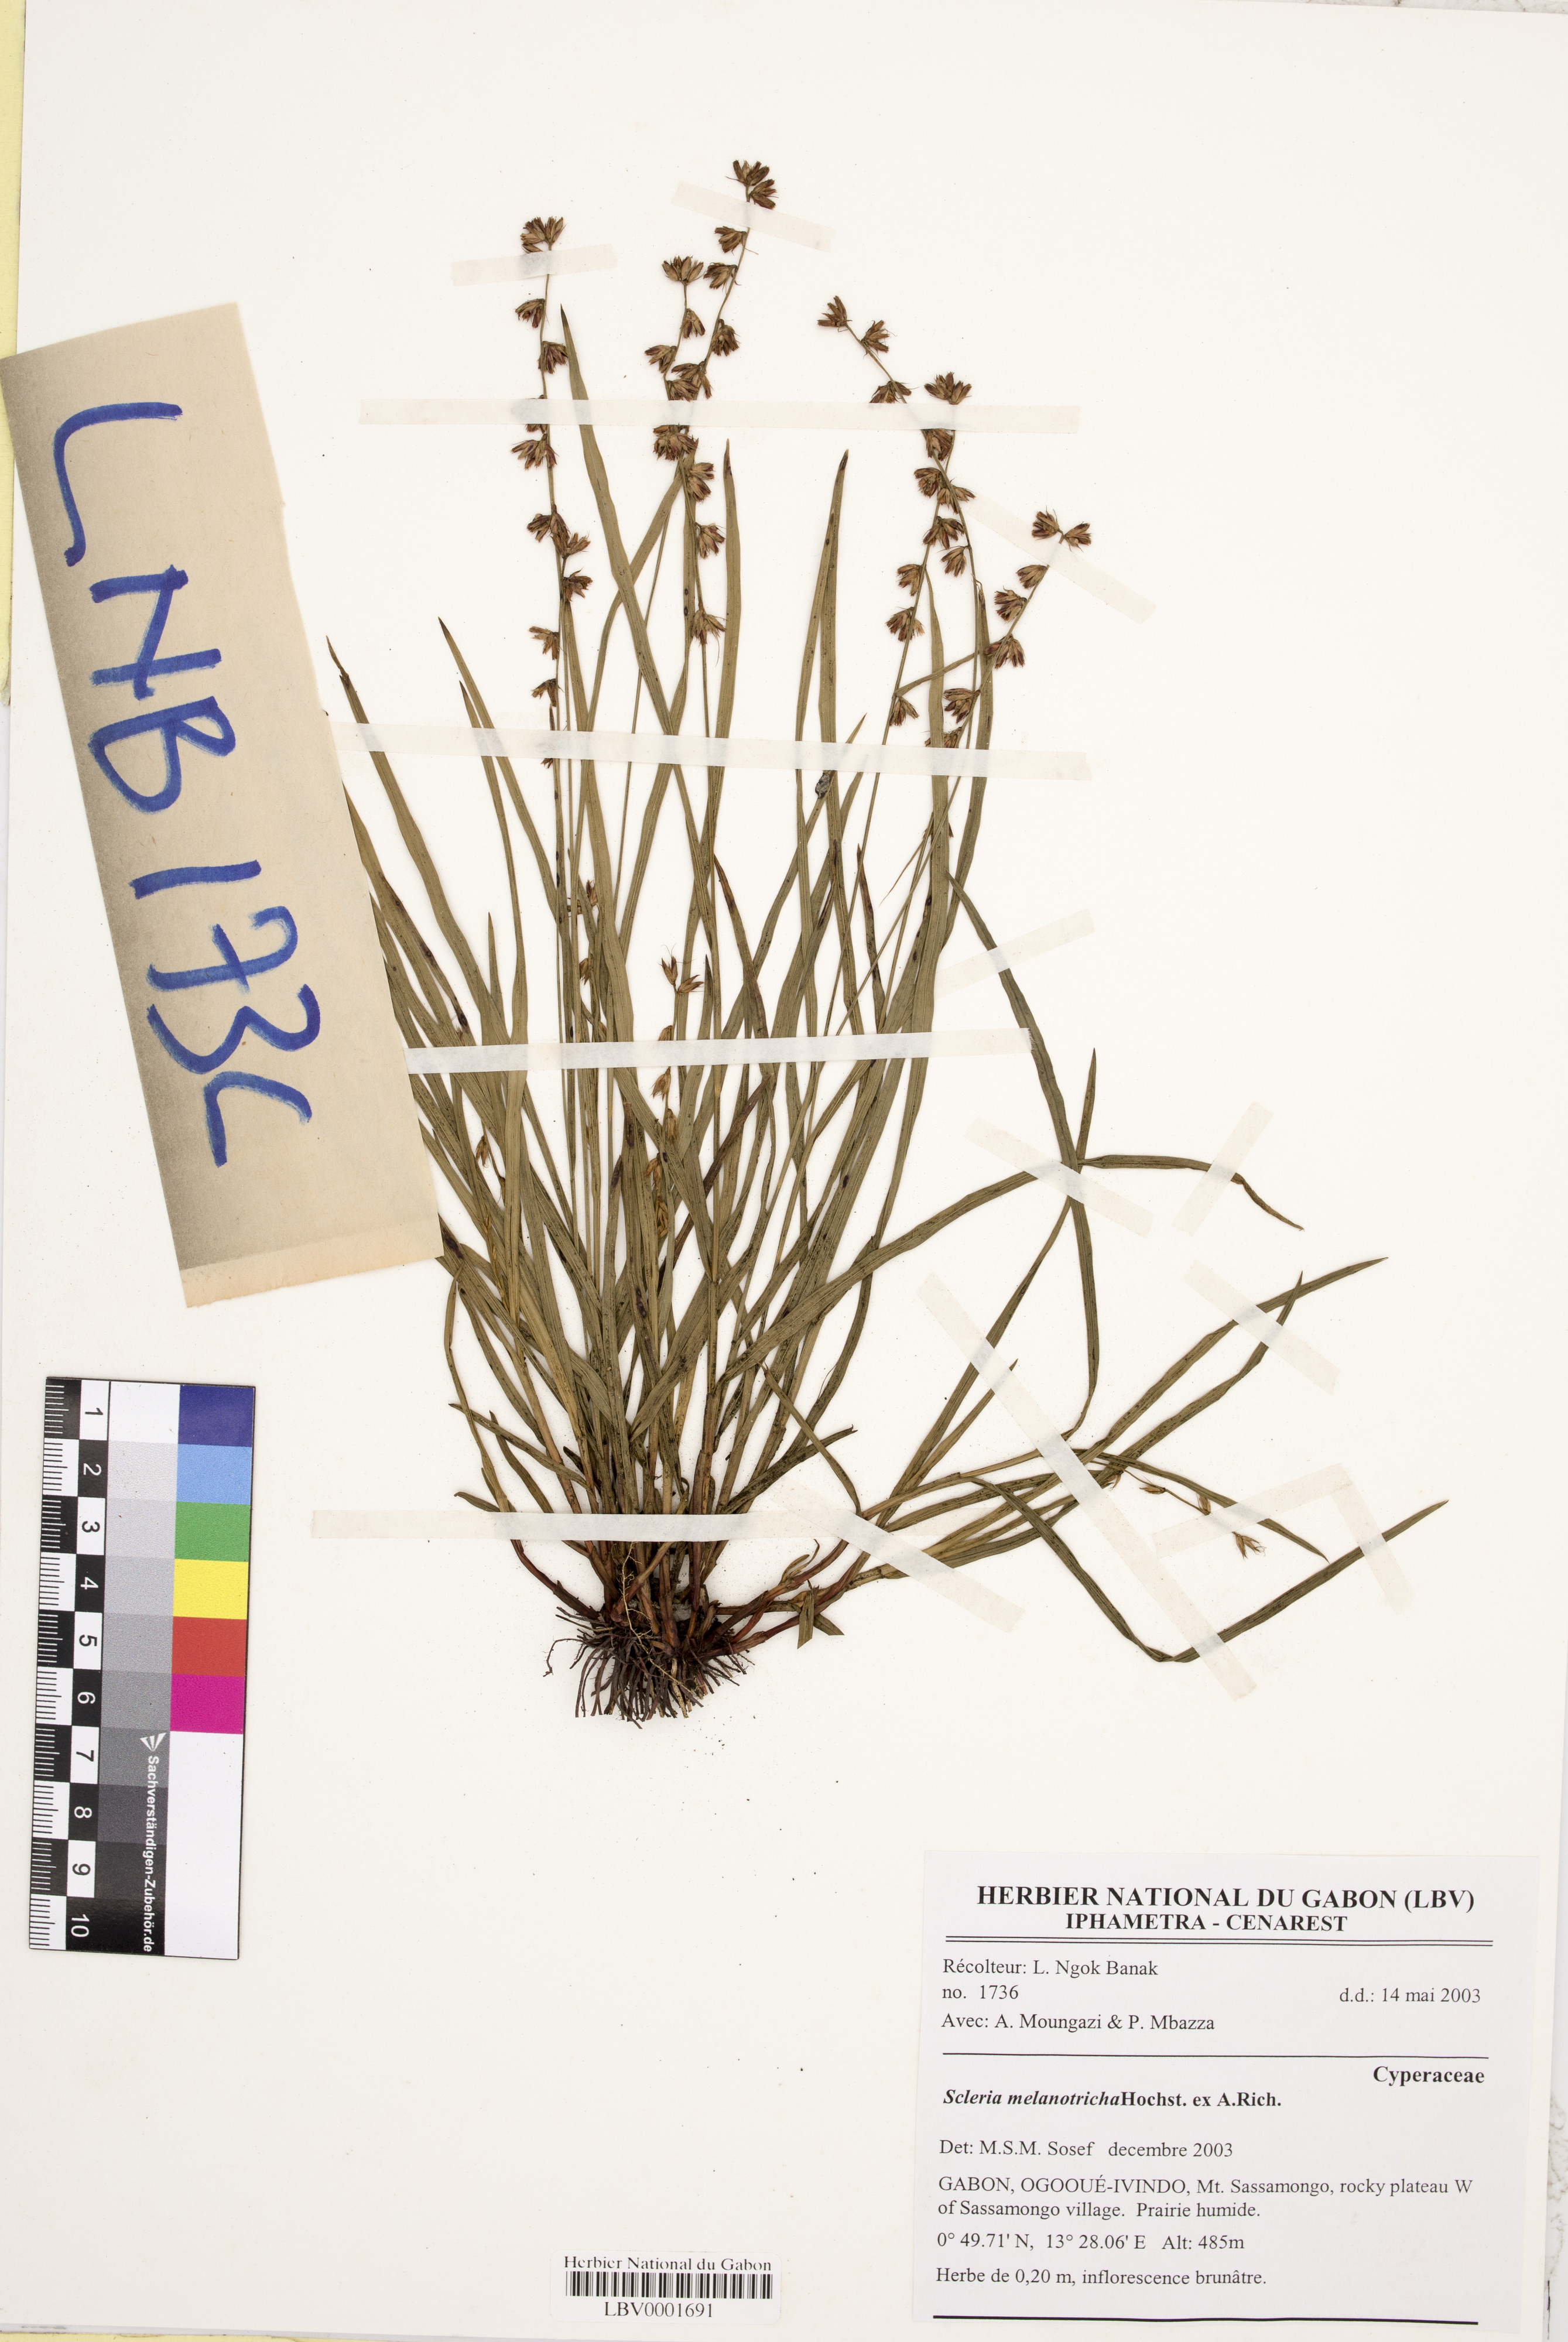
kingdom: Plantae
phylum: Tracheophyta
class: Liliopsida
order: Poales
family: Cyperaceae
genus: Scleria
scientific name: Scleria melanotricha
